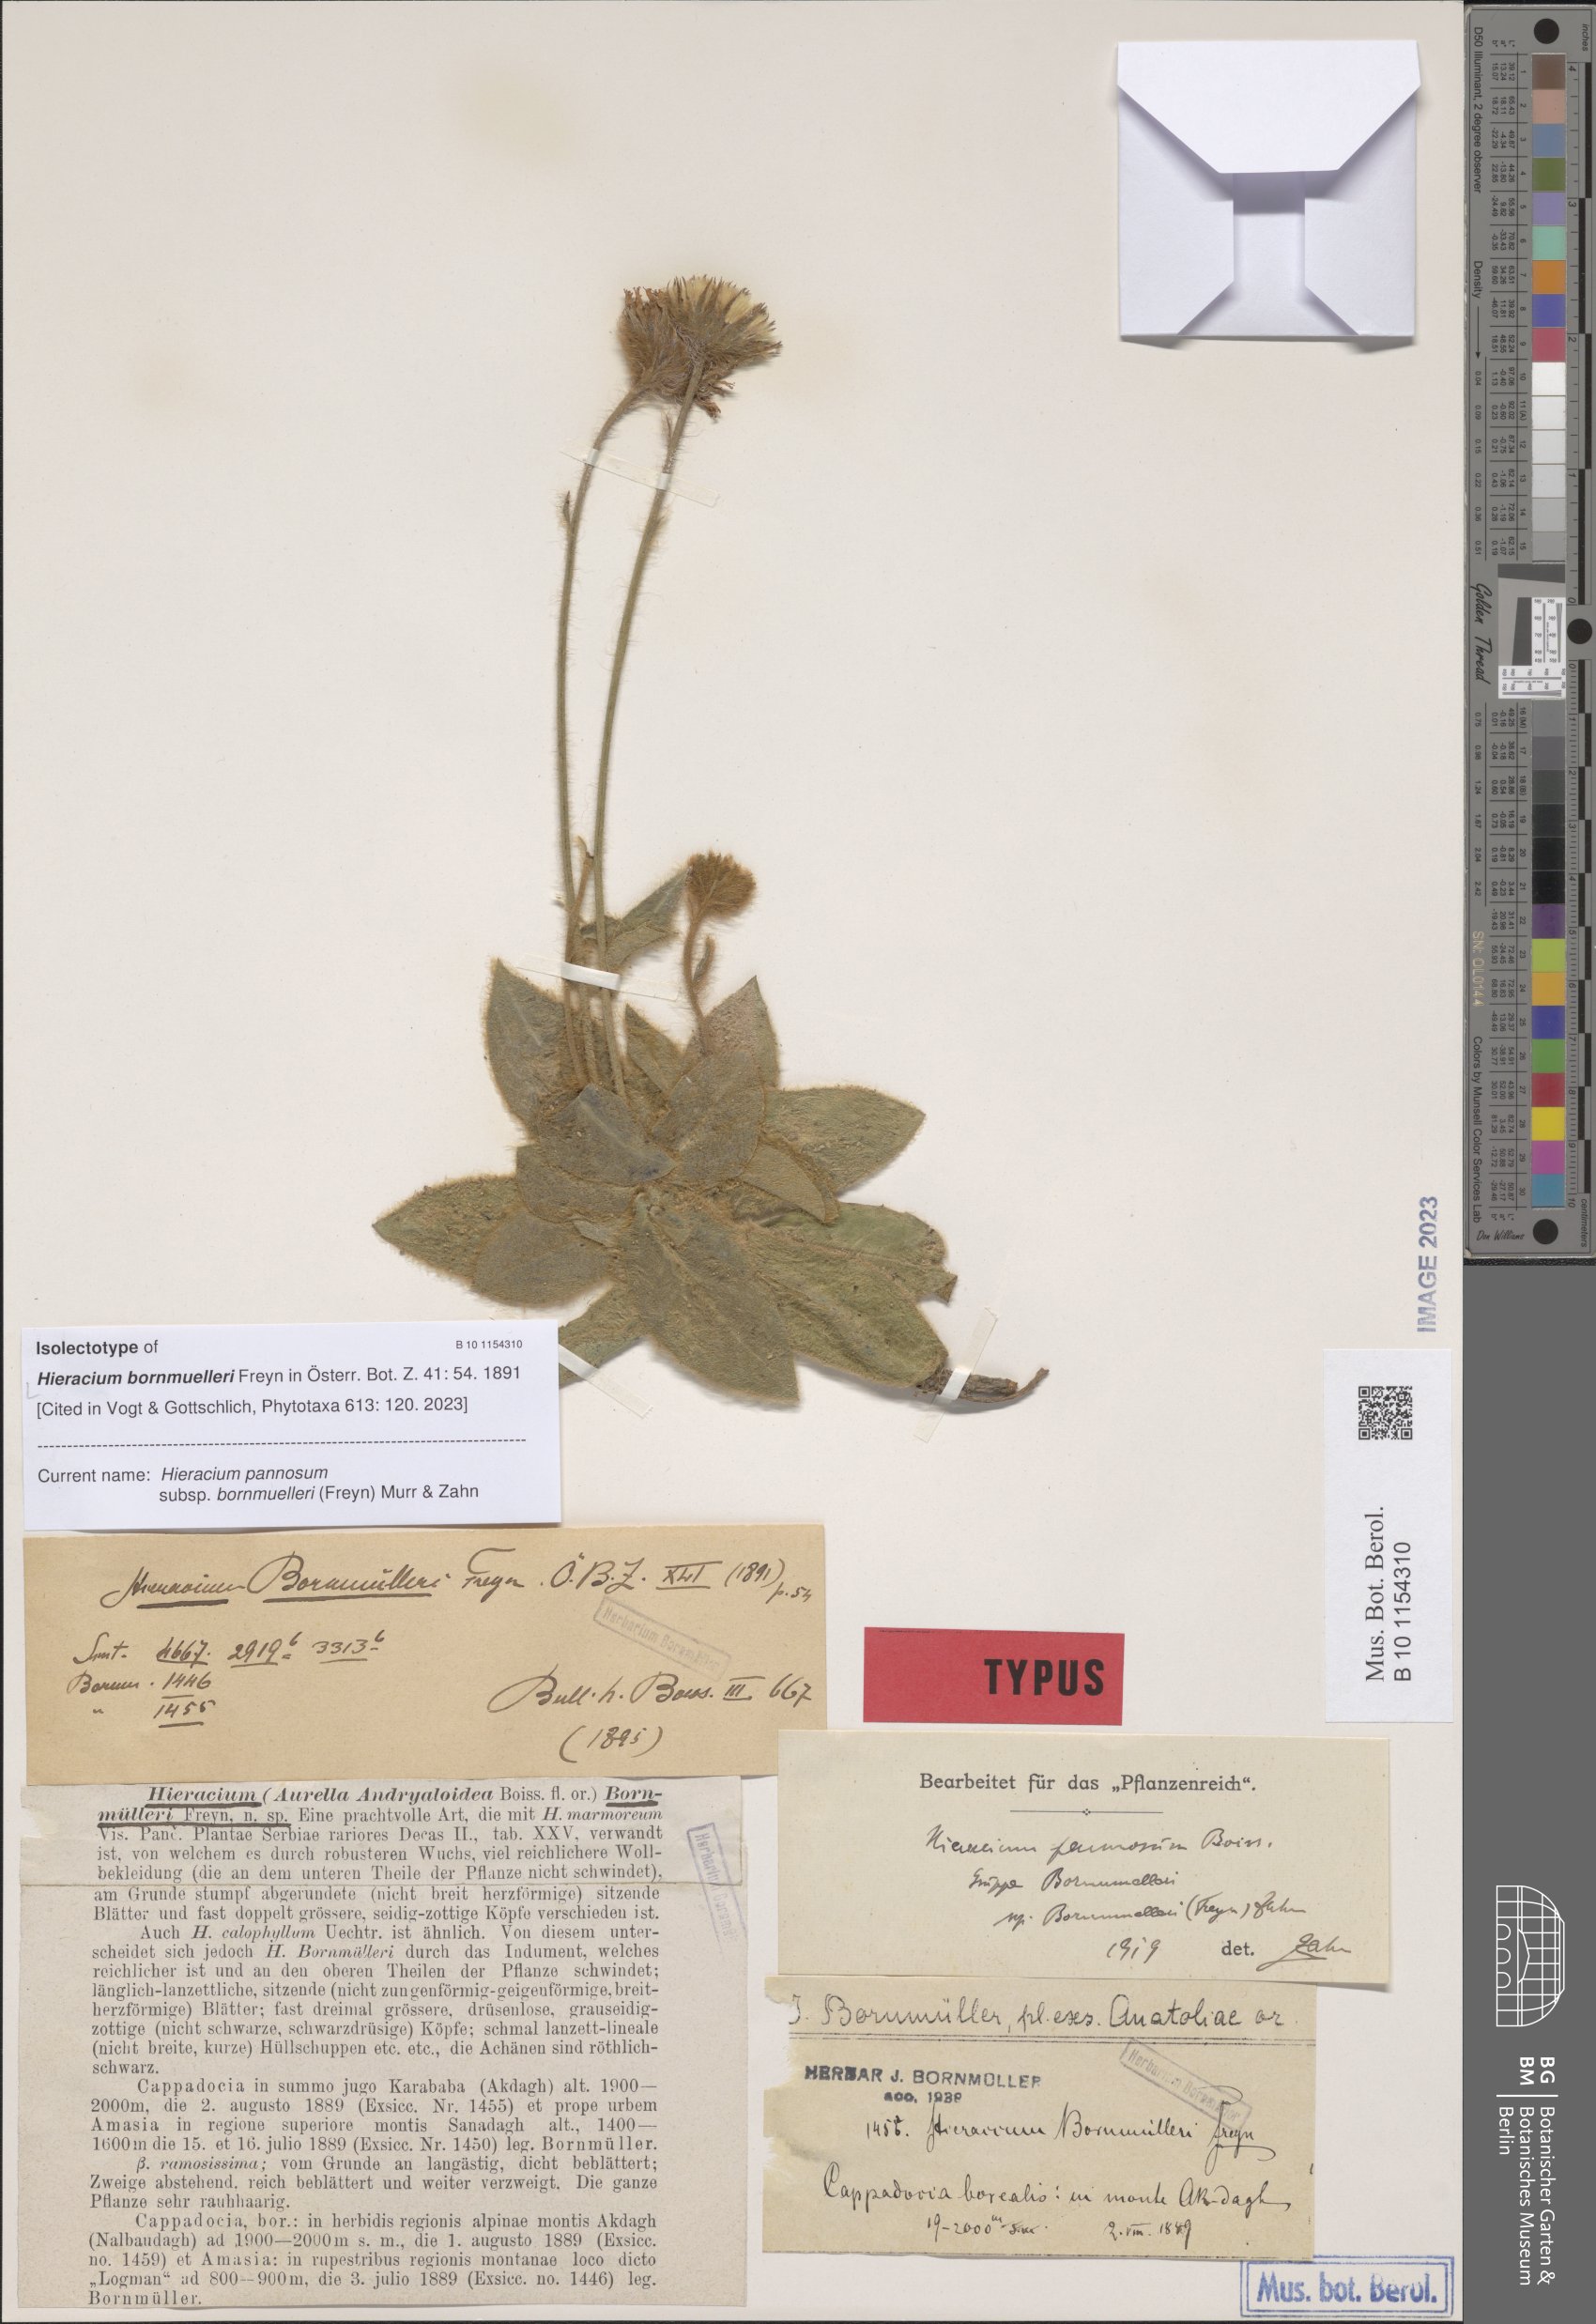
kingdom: Plantae
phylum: Tracheophyta
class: Magnoliopsida
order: Asterales
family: Asteraceae
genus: Hieracium
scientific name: Hieracium pannosum
